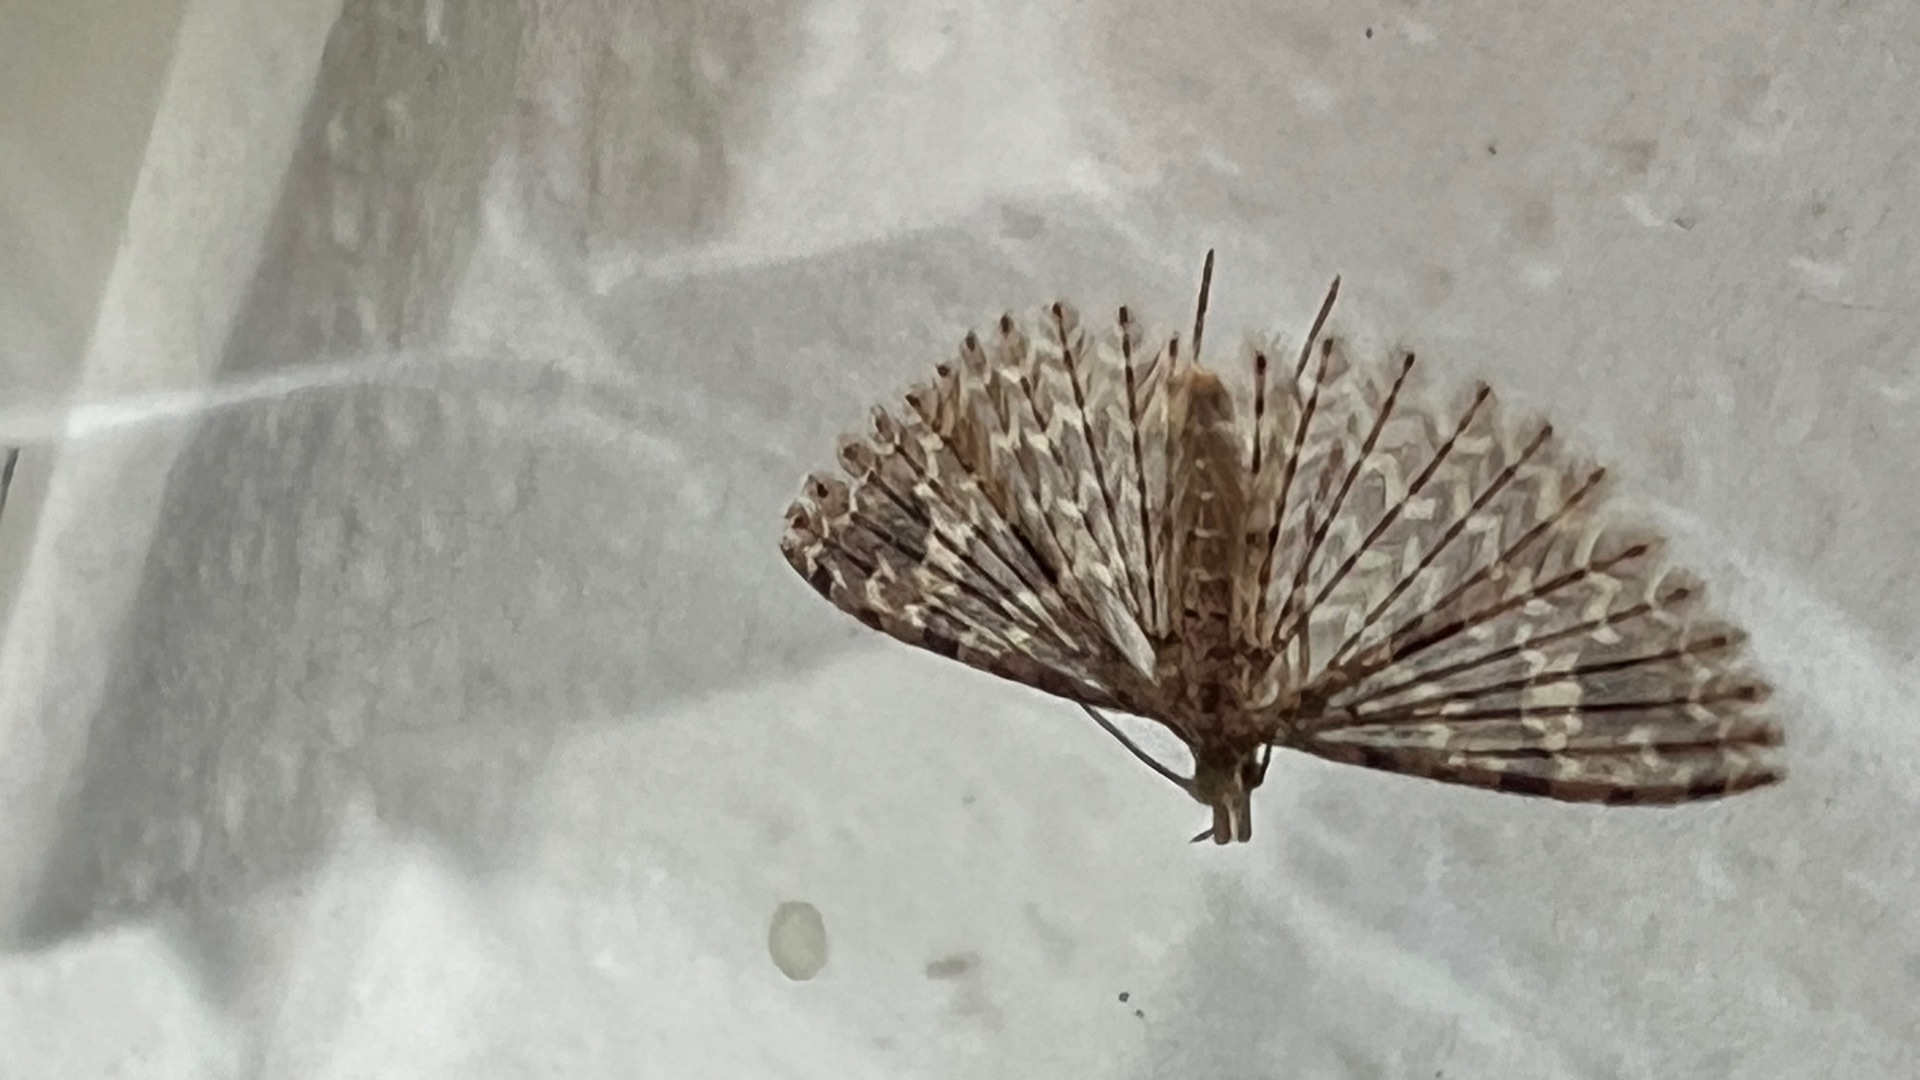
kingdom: Animalia
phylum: Arthropoda
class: Insecta
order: Lepidoptera
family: Alucitidae
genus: Alucita
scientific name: Alucita hexadactyla
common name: Kaprifoliefjermøl
